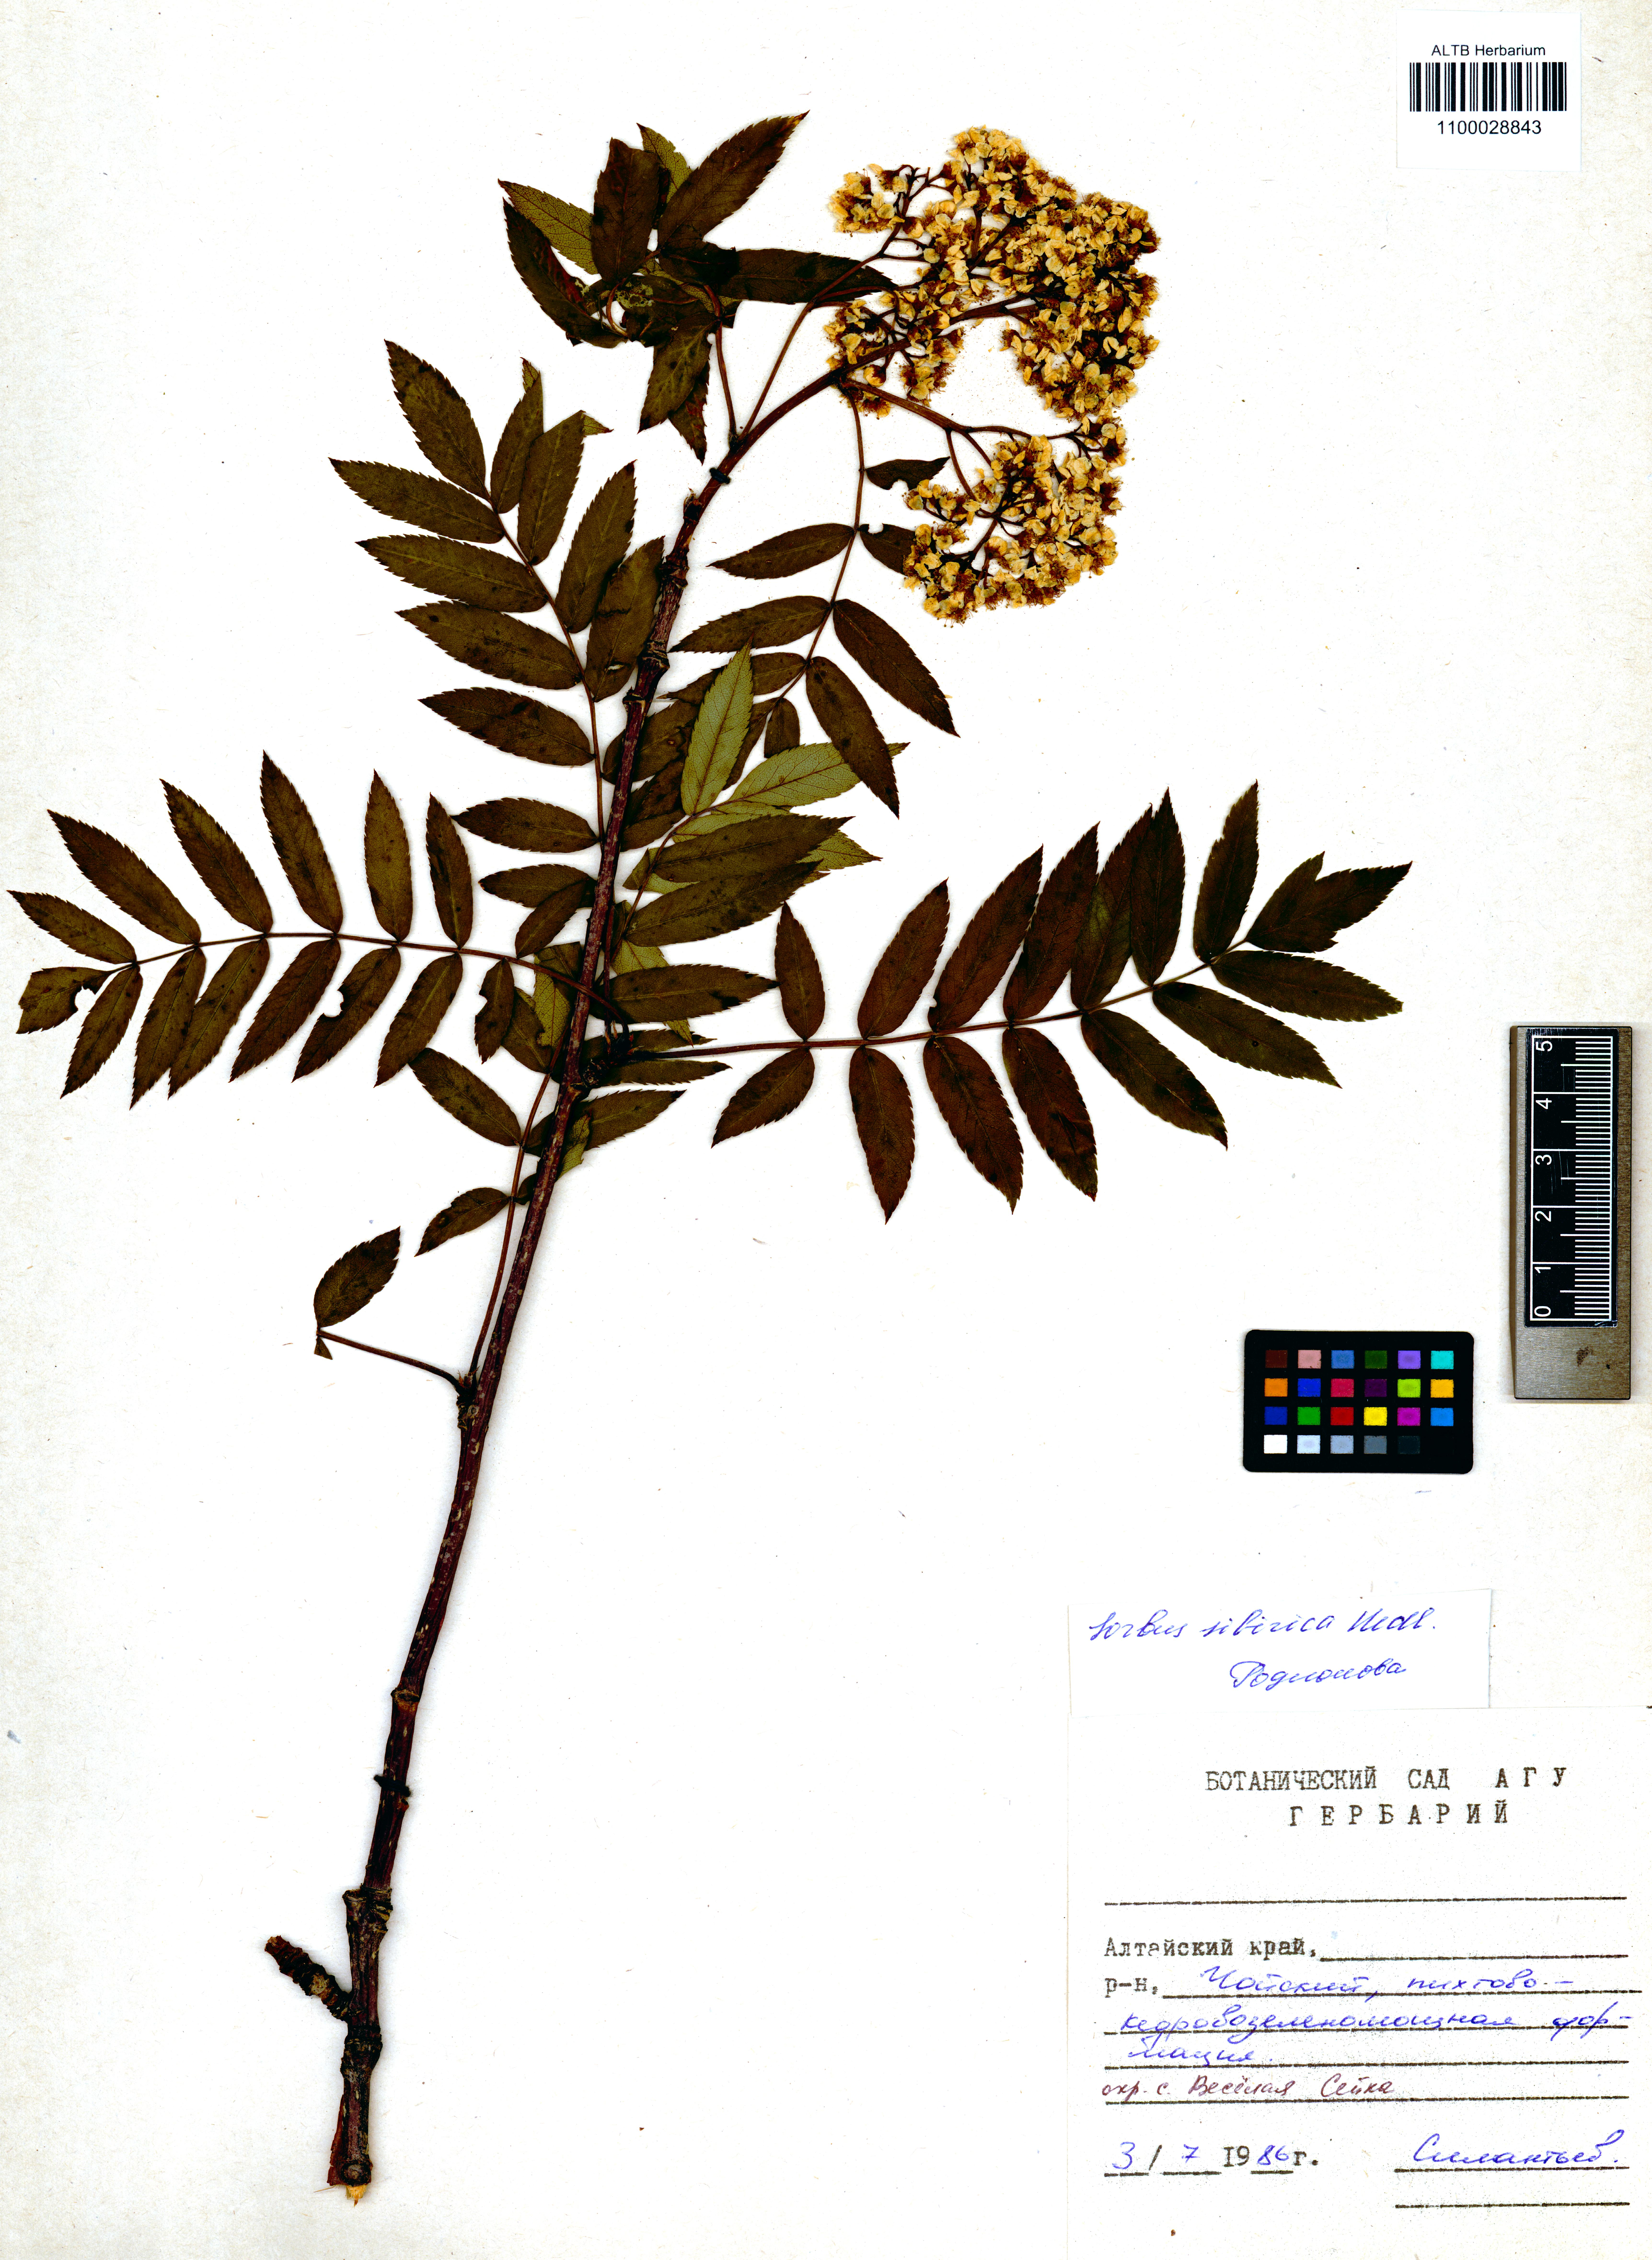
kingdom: Plantae
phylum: Tracheophyta
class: Magnoliopsida
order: Rosales
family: Rosaceae
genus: Sorbus
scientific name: Sorbus aucuparia
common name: Rowan
